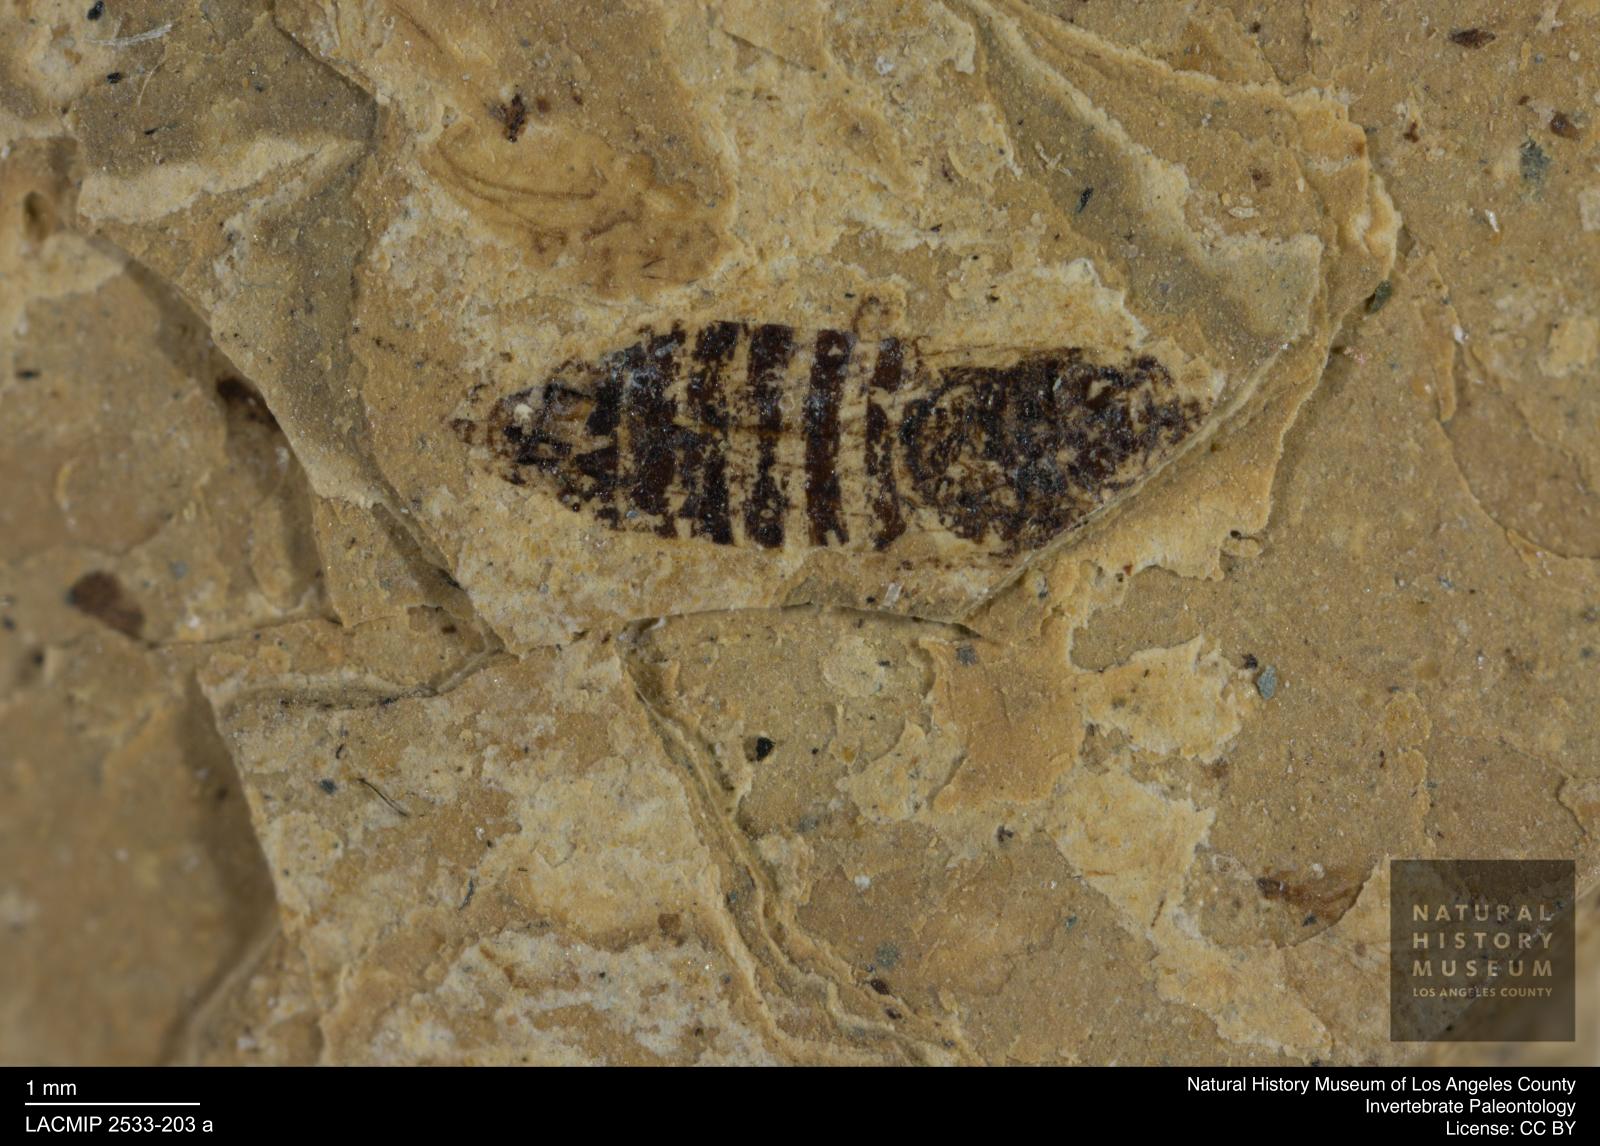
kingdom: Animalia
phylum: Arthropoda
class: Insecta
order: Hemiptera
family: Cicadellidae
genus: Thamnotettix
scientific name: Thamnotettix gracilentus
